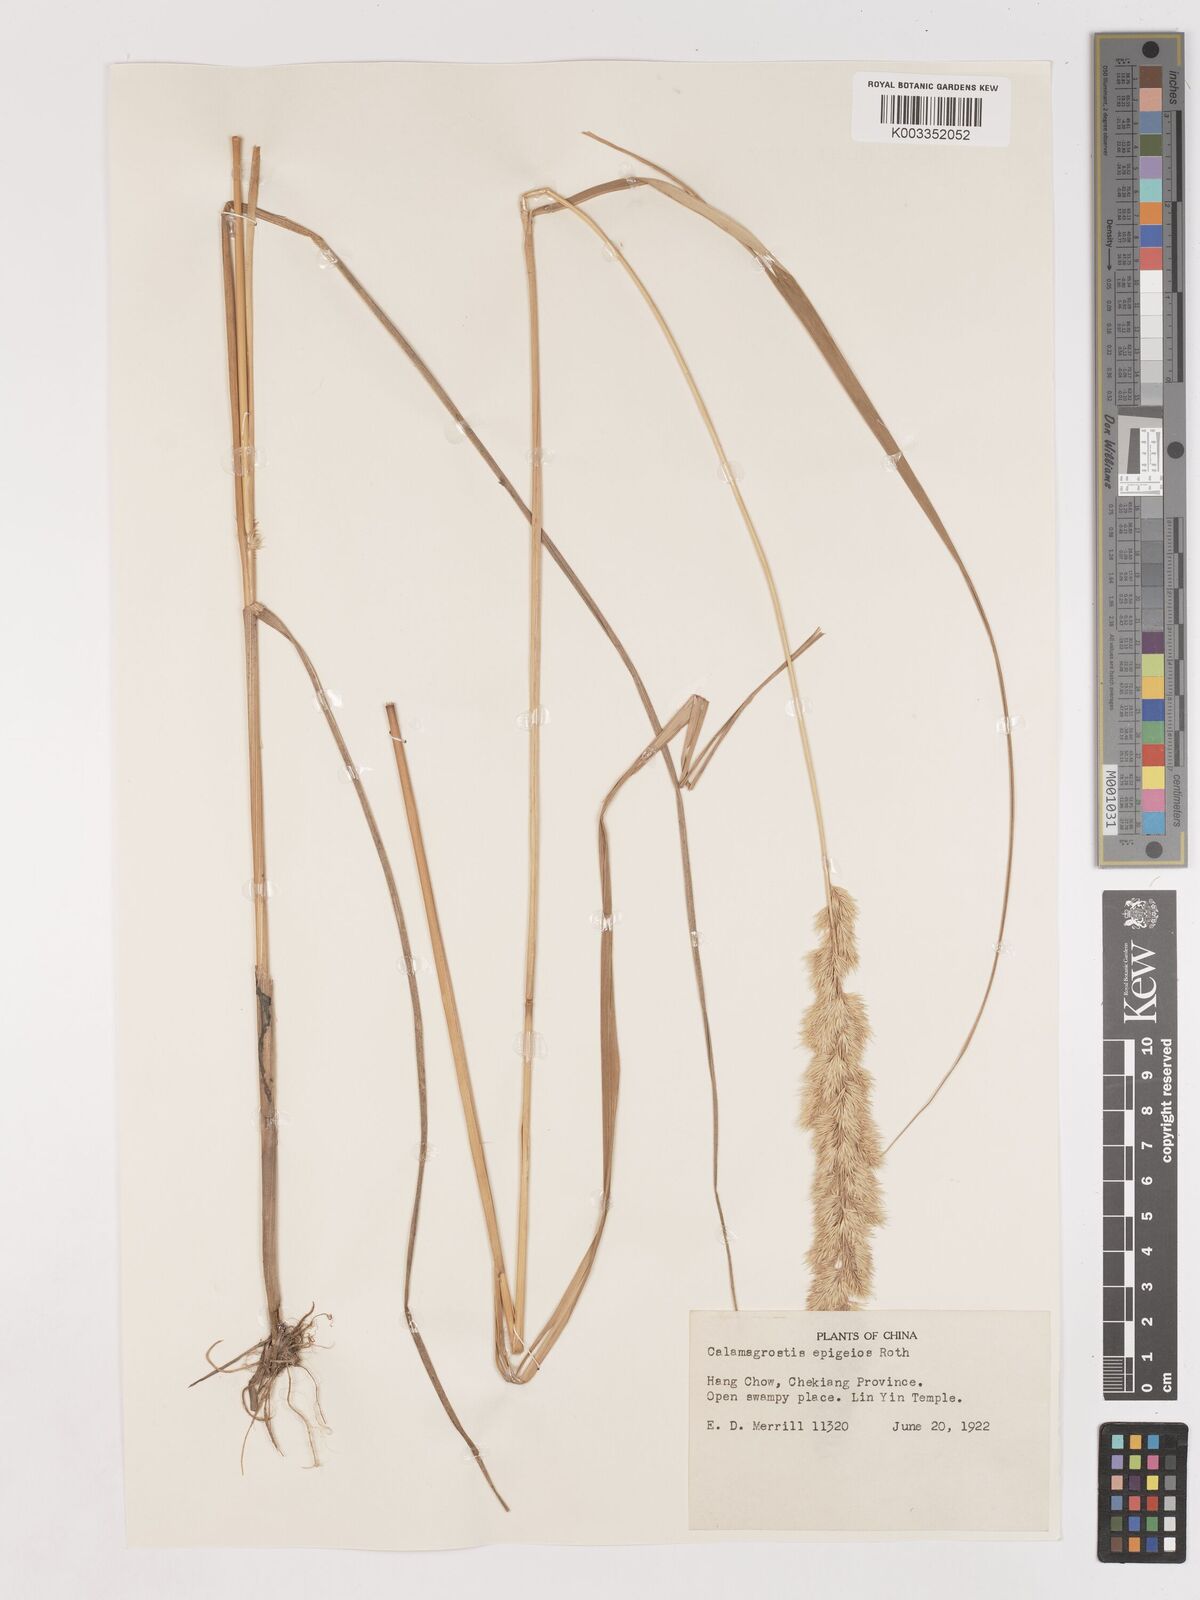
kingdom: Plantae
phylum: Tracheophyta
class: Liliopsida
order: Poales
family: Poaceae
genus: Calamagrostis
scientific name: Calamagrostis epigejos
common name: Wood small-reed
